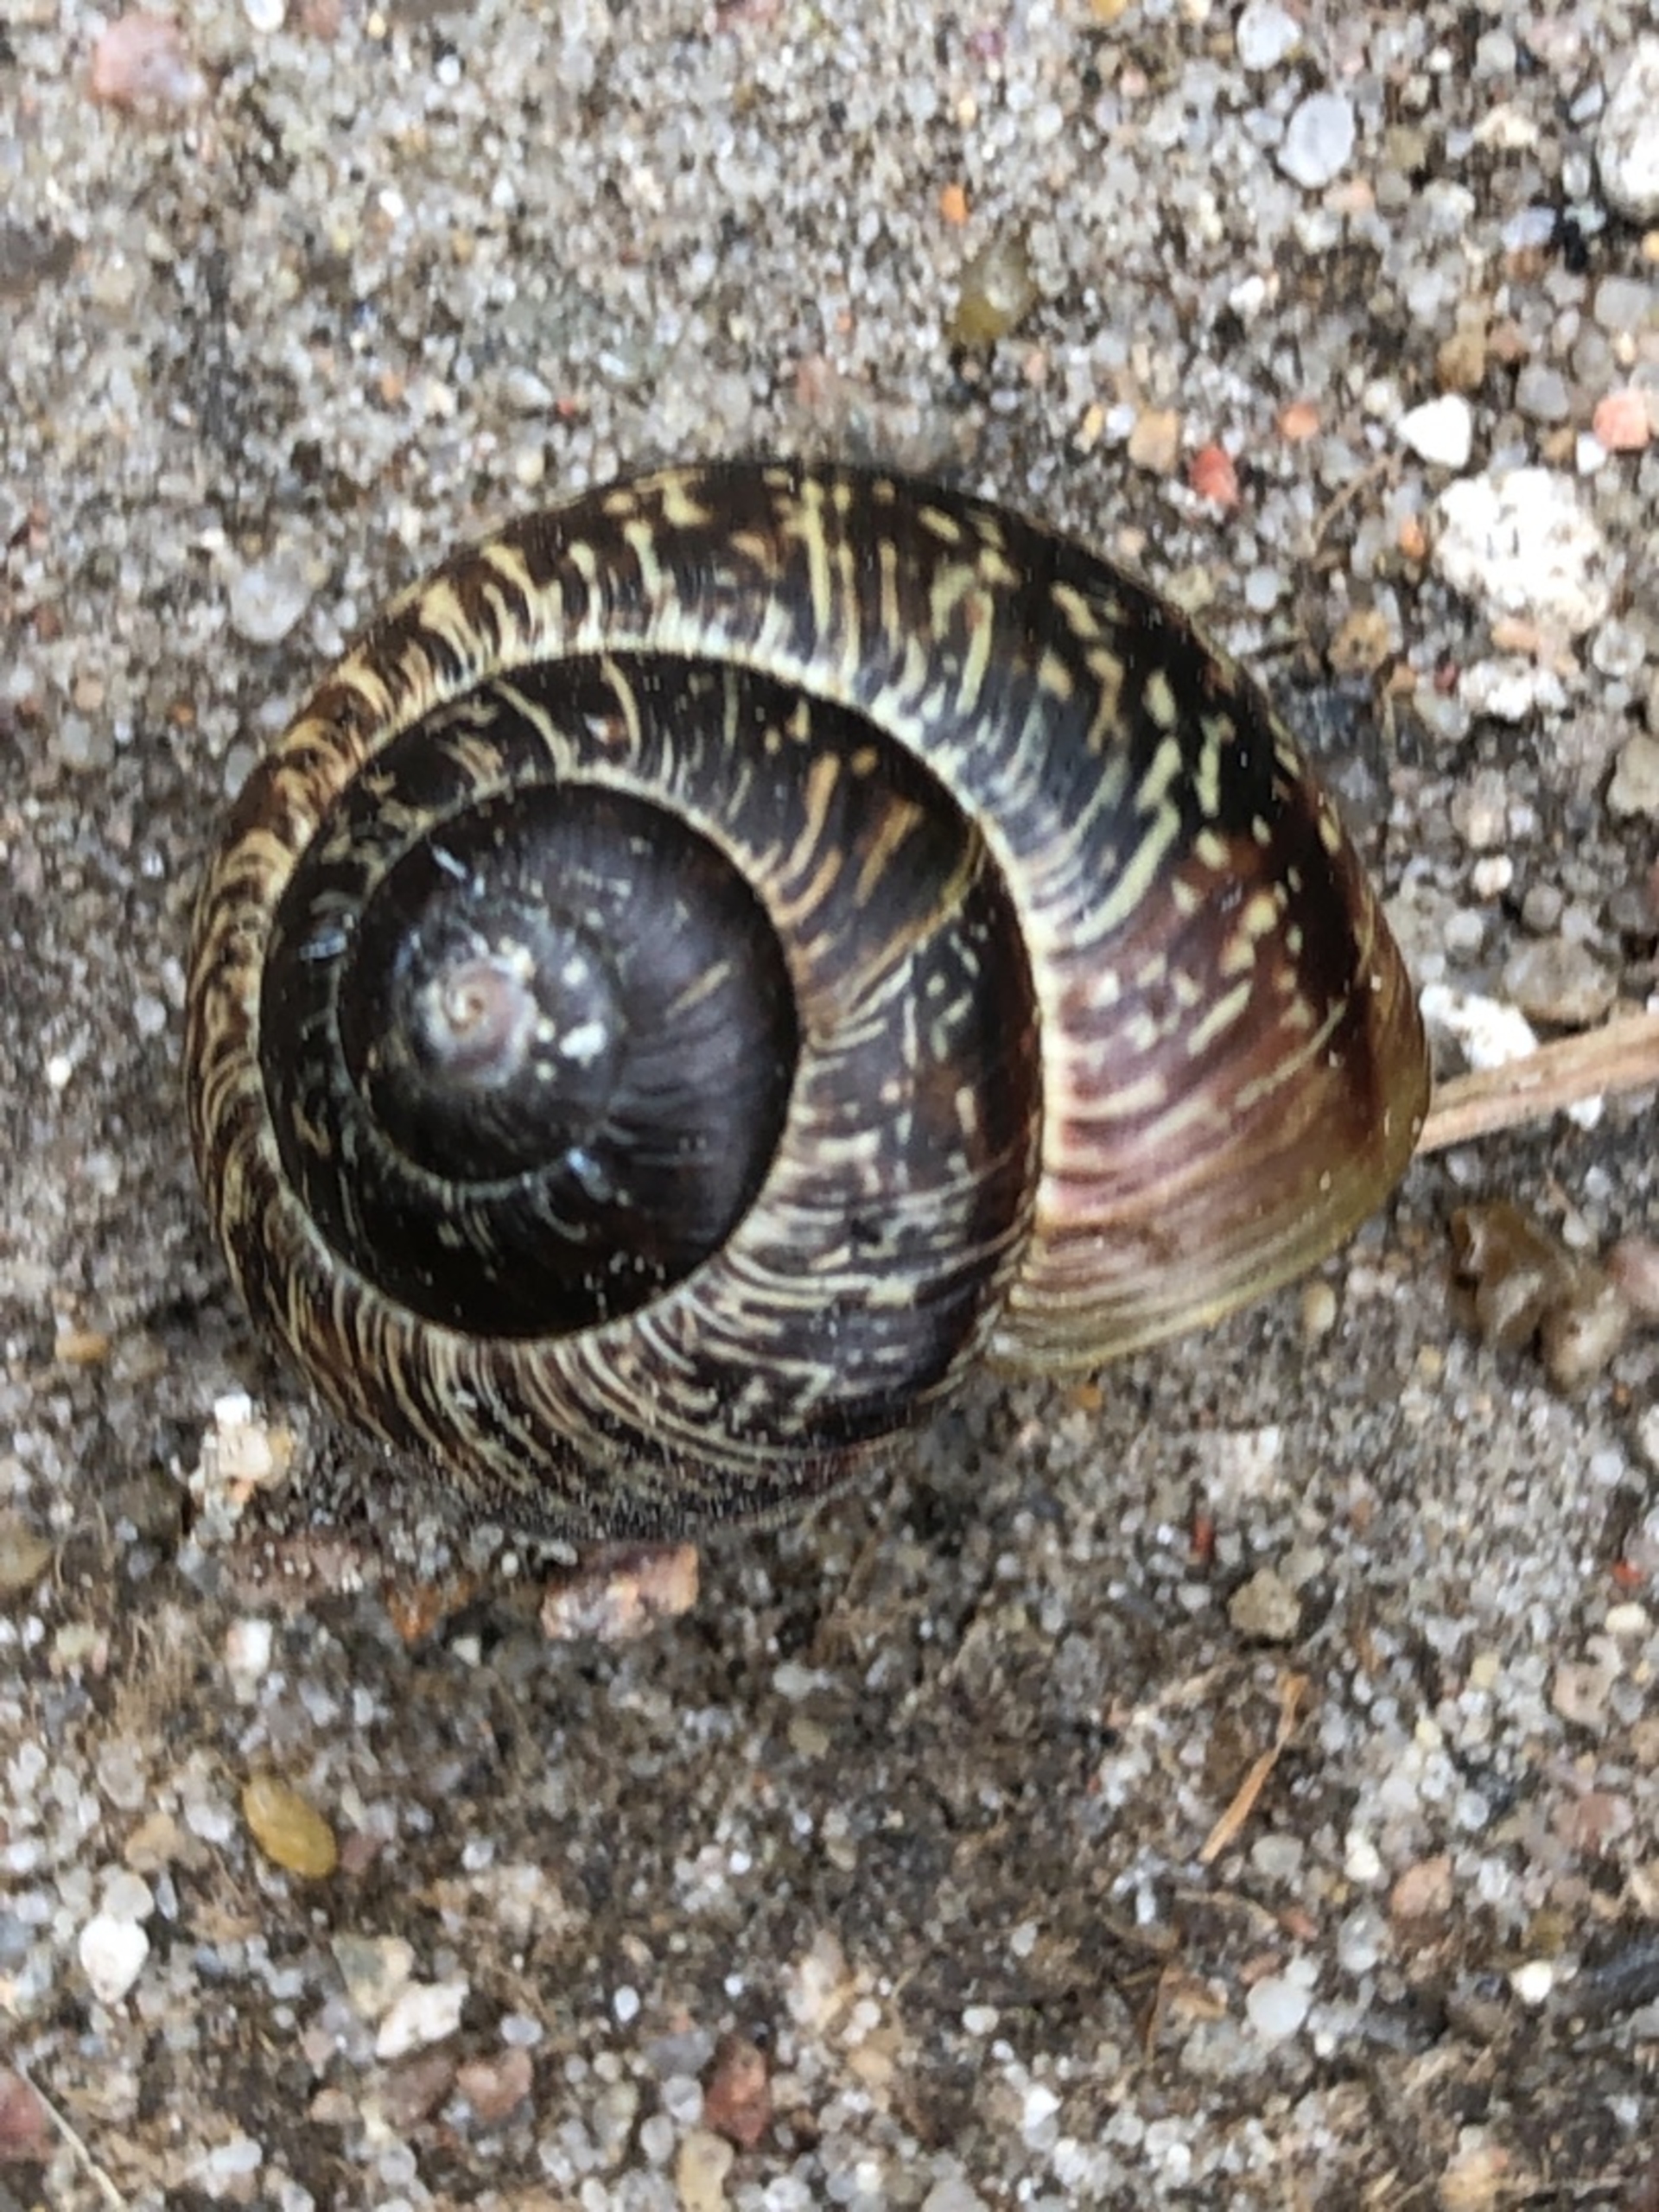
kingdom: Animalia
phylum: Mollusca
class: Gastropoda
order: Stylommatophora
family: Helicidae
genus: Arianta
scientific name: Arianta arbustorum
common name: Kratsnegl
